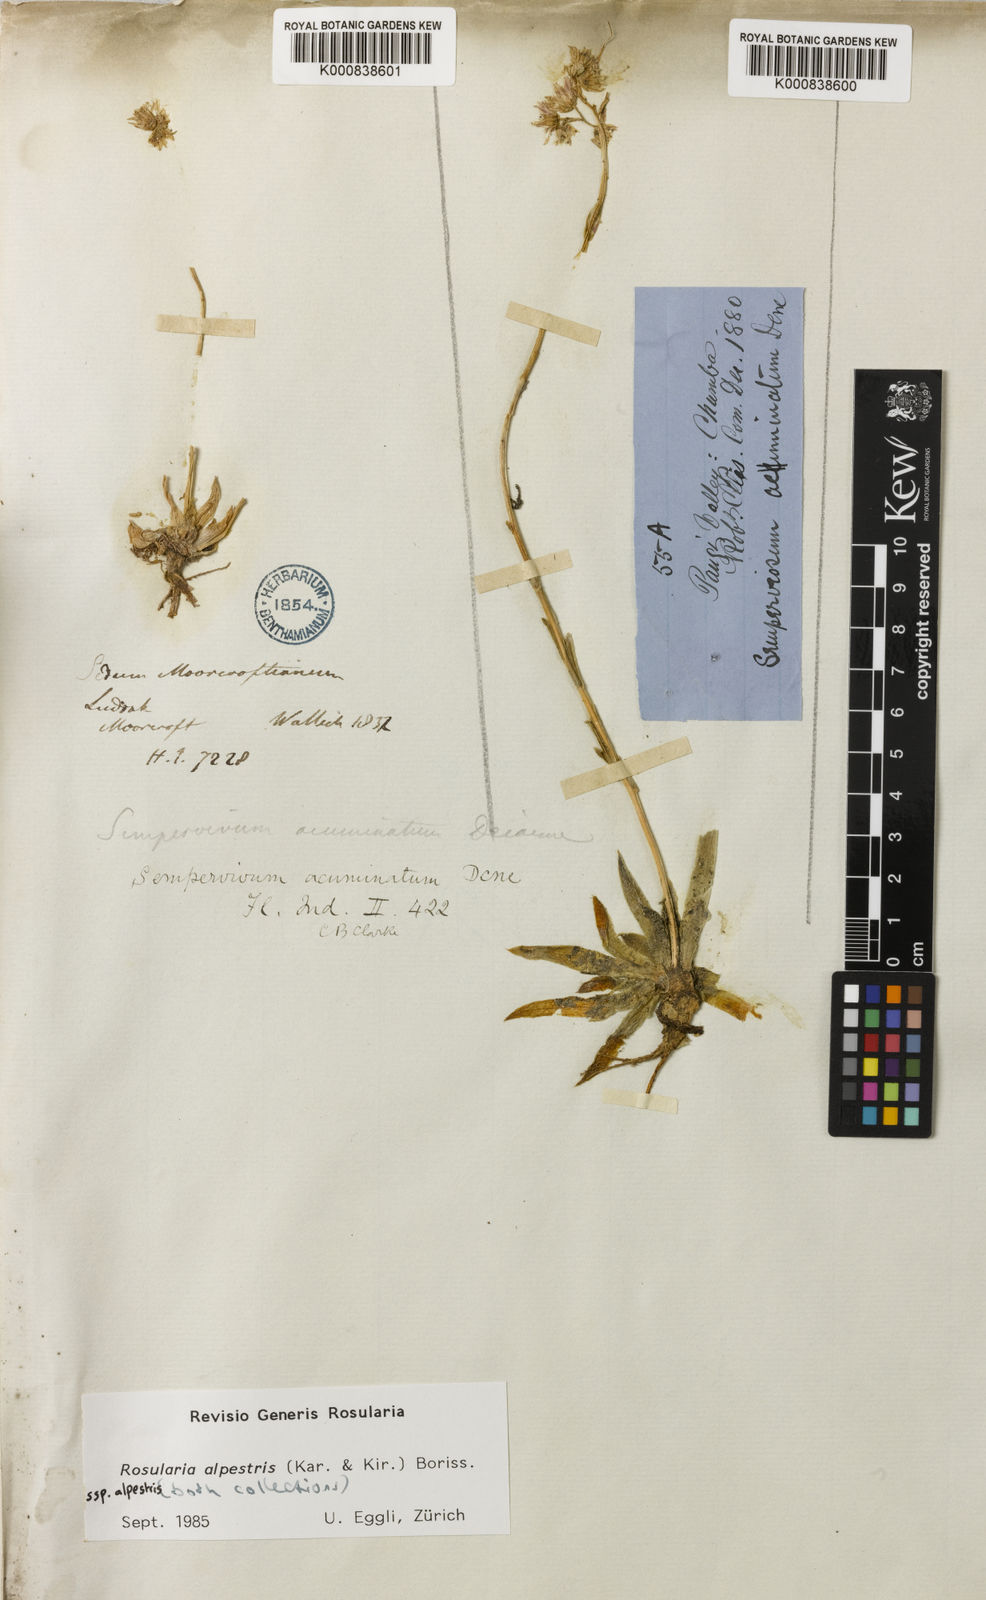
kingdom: Plantae
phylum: Tracheophyta
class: Magnoliopsida
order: Saxifragales
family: Crassulaceae
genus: Rosularia
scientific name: Rosularia alpestris
